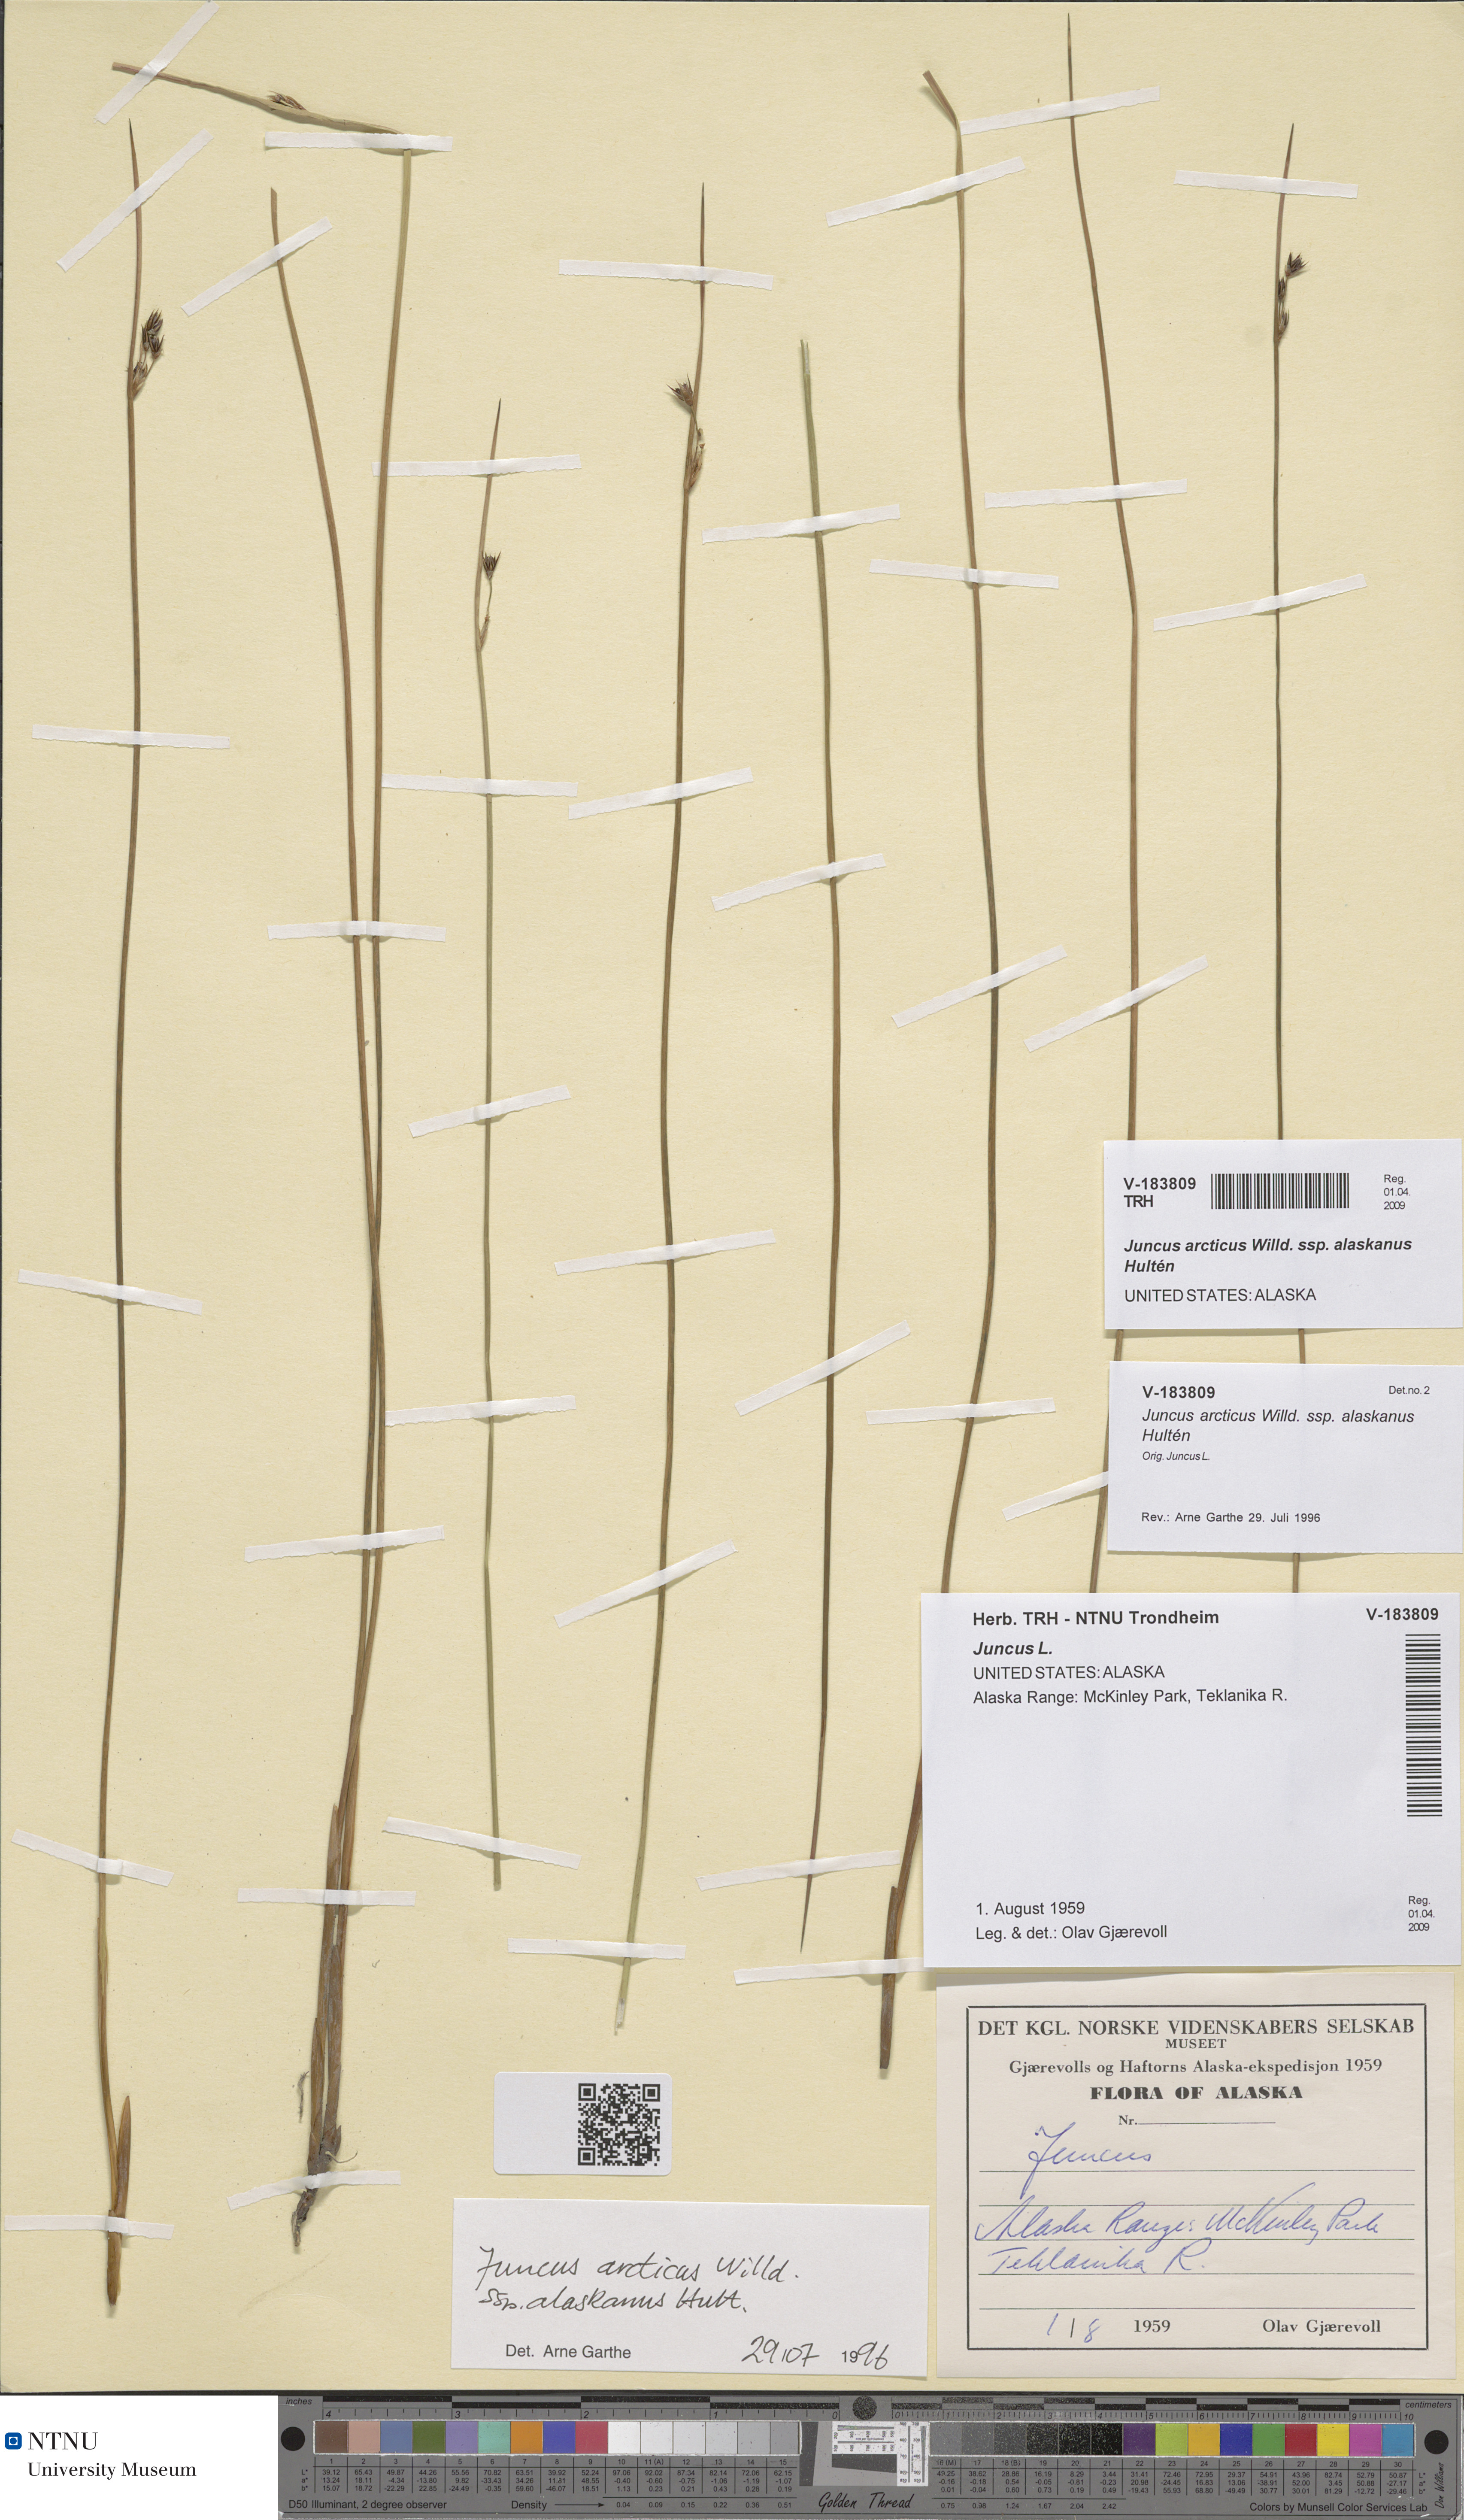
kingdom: Plantae
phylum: Tracheophyta
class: Liliopsida
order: Poales
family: Juncaceae
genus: Juncus
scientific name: Juncus arcticus
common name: Arctic rush
